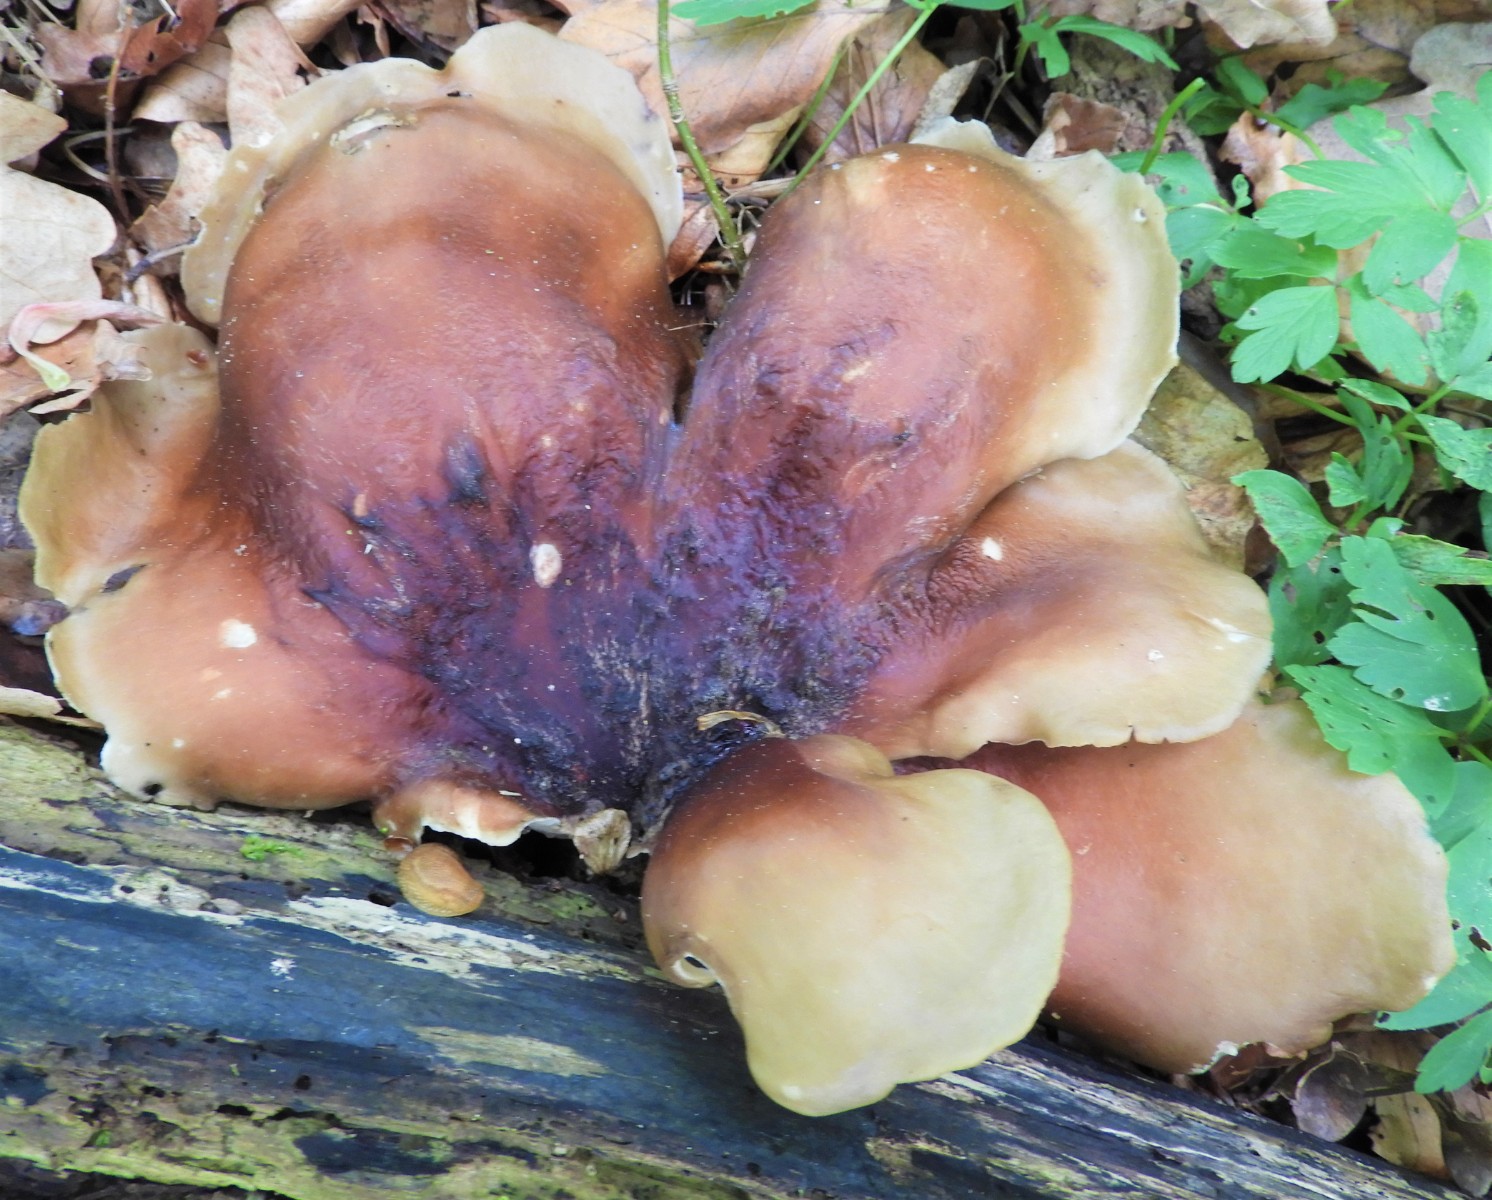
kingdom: Fungi
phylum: Basidiomycota
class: Agaricomycetes
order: Polyporales
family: Polyporaceae
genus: Picipes
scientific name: Picipes badius
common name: kastaniebrun stilkporesvamp
